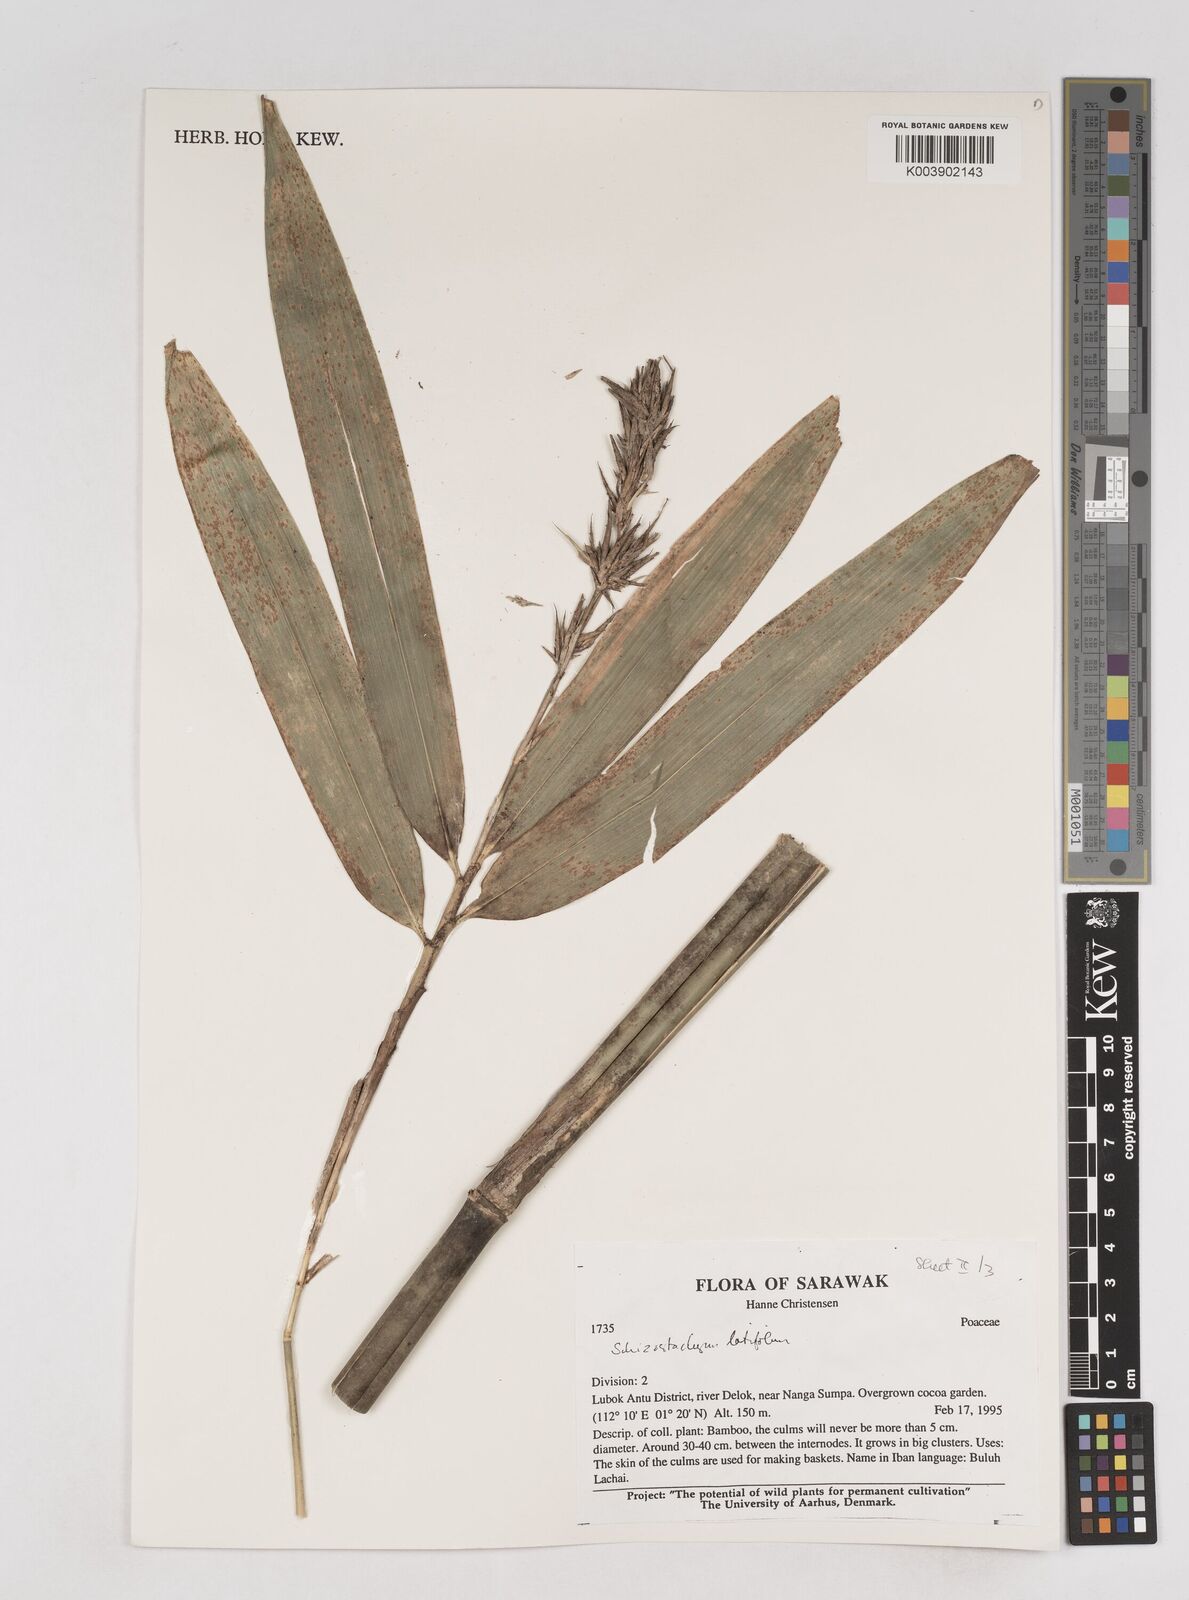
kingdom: Plantae
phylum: Tracheophyta
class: Liliopsida
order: Poales
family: Poaceae
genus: Schizostachyum
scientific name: Schizostachyum
